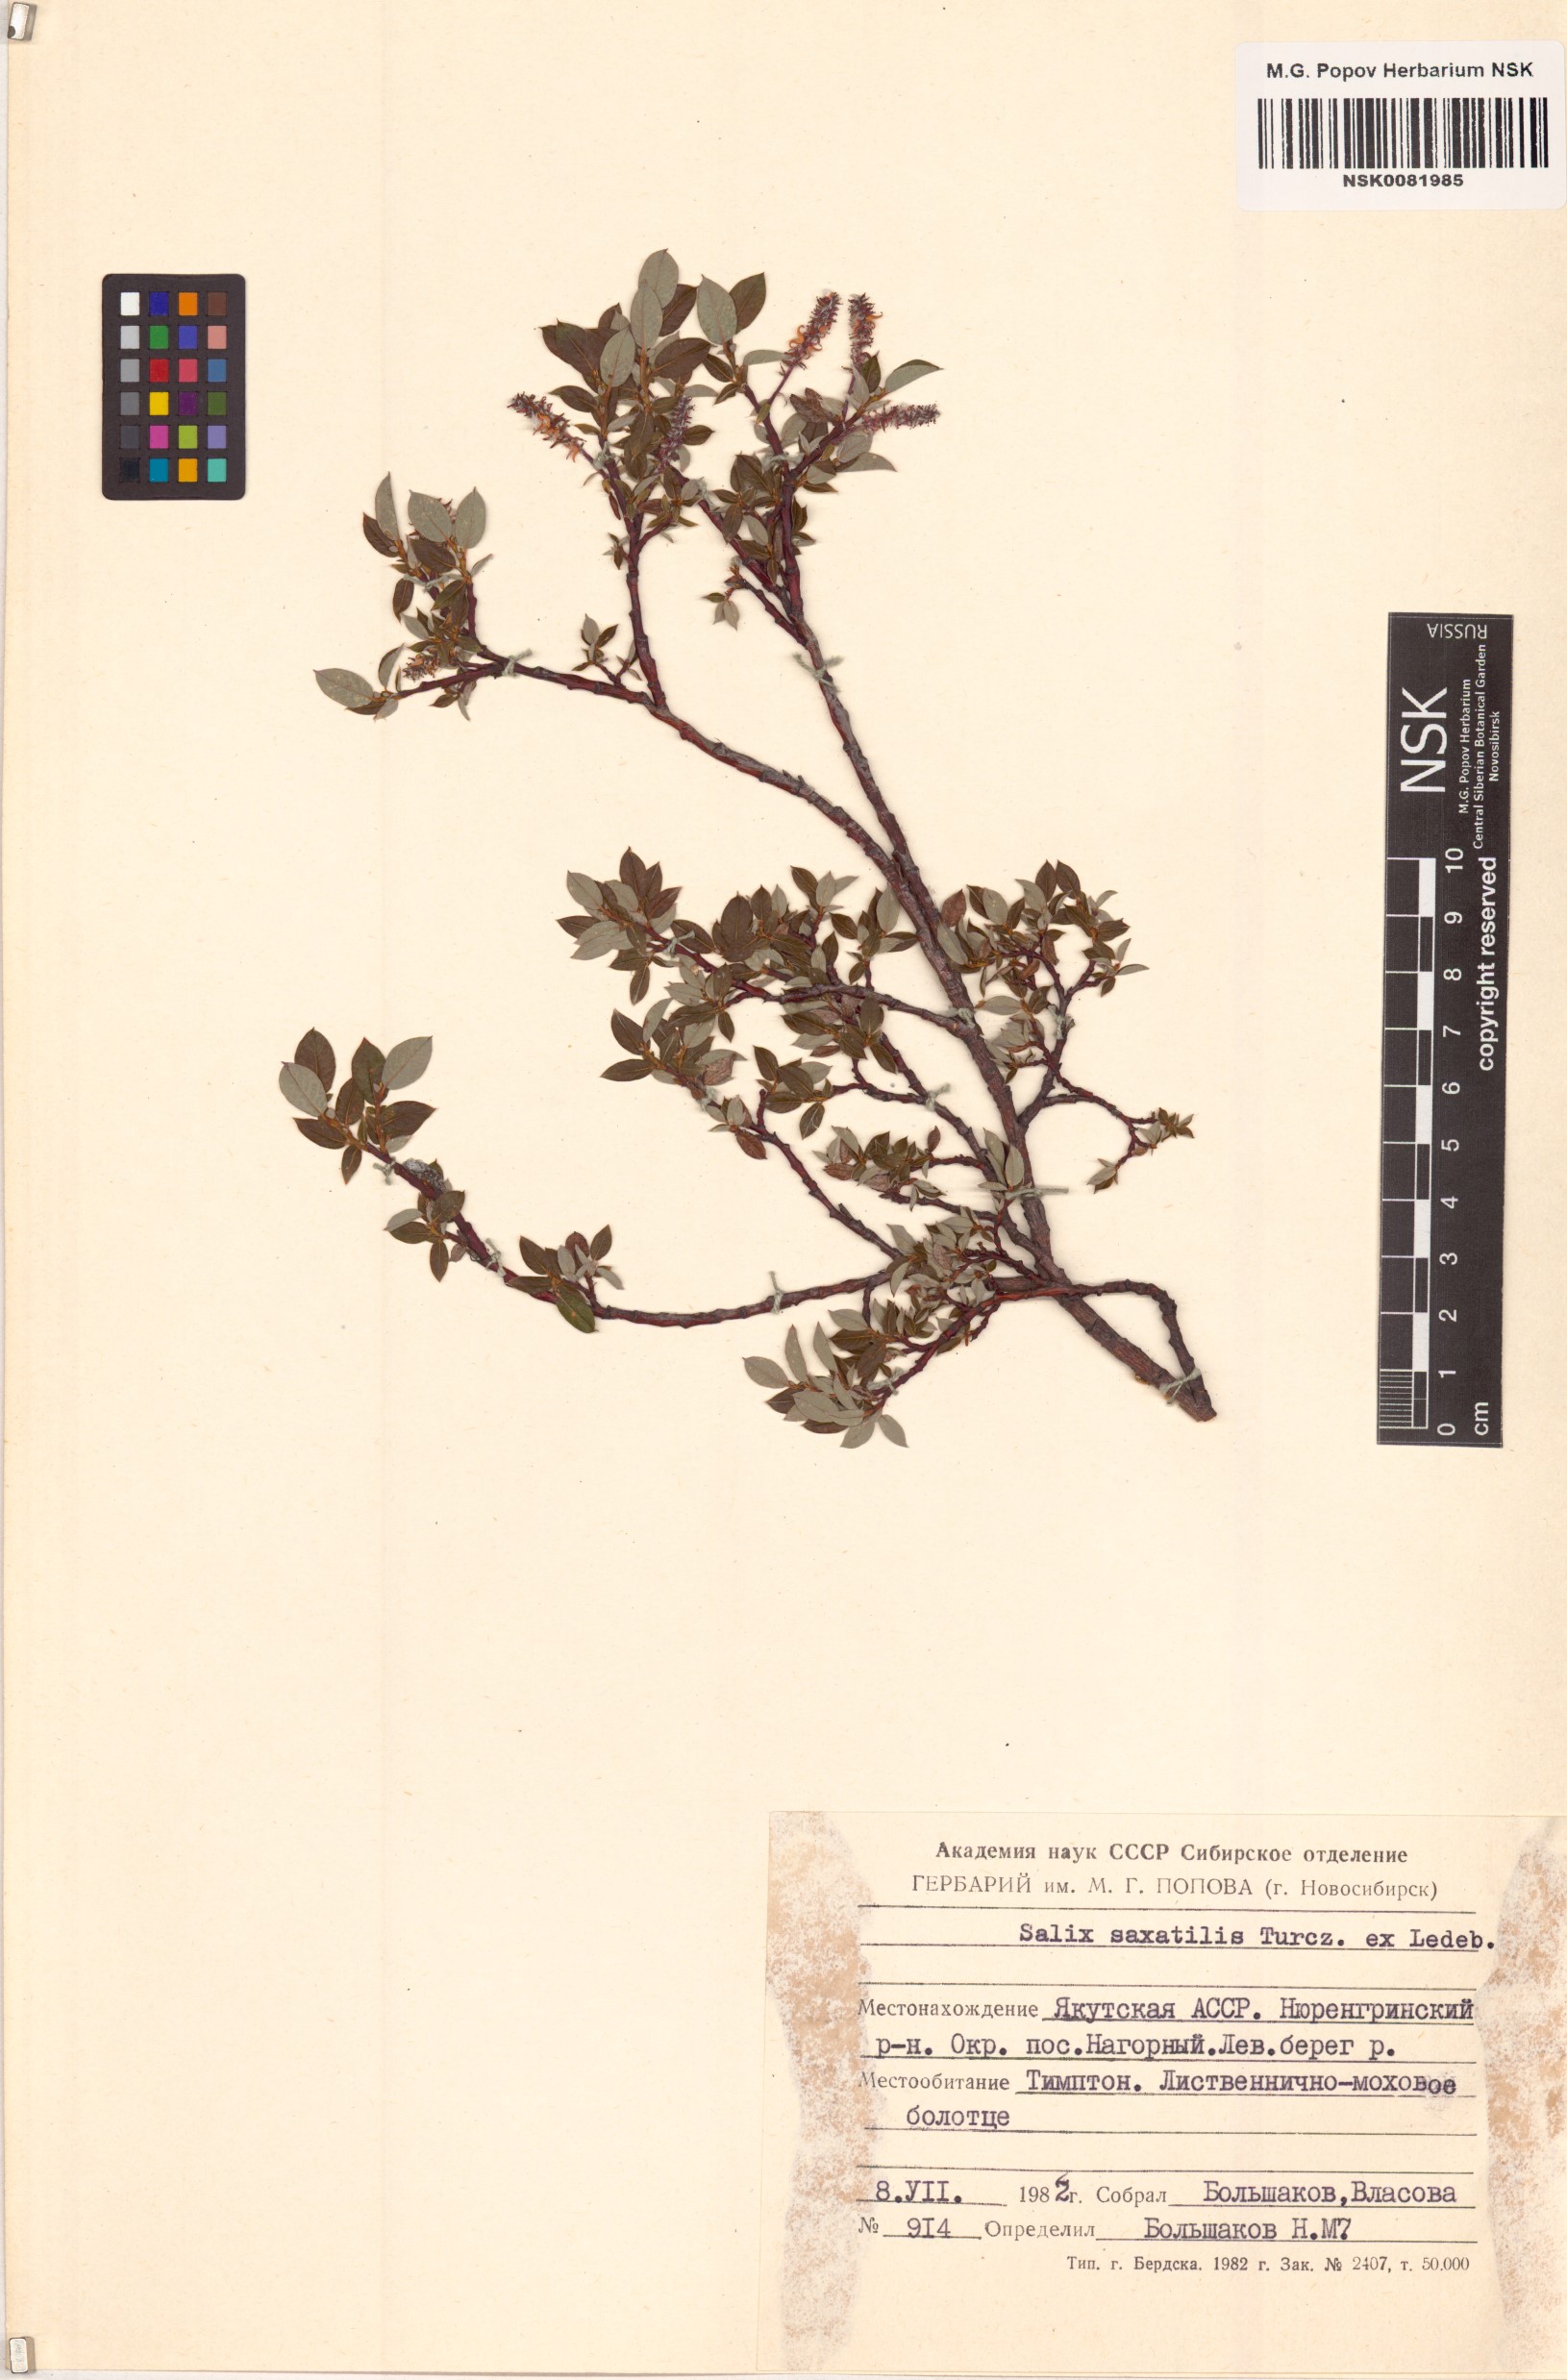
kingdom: Plantae
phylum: Tracheophyta
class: Magnoliopsida
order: Malpighiales
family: Salicaceae
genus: Salix
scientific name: Salix saxatilis
